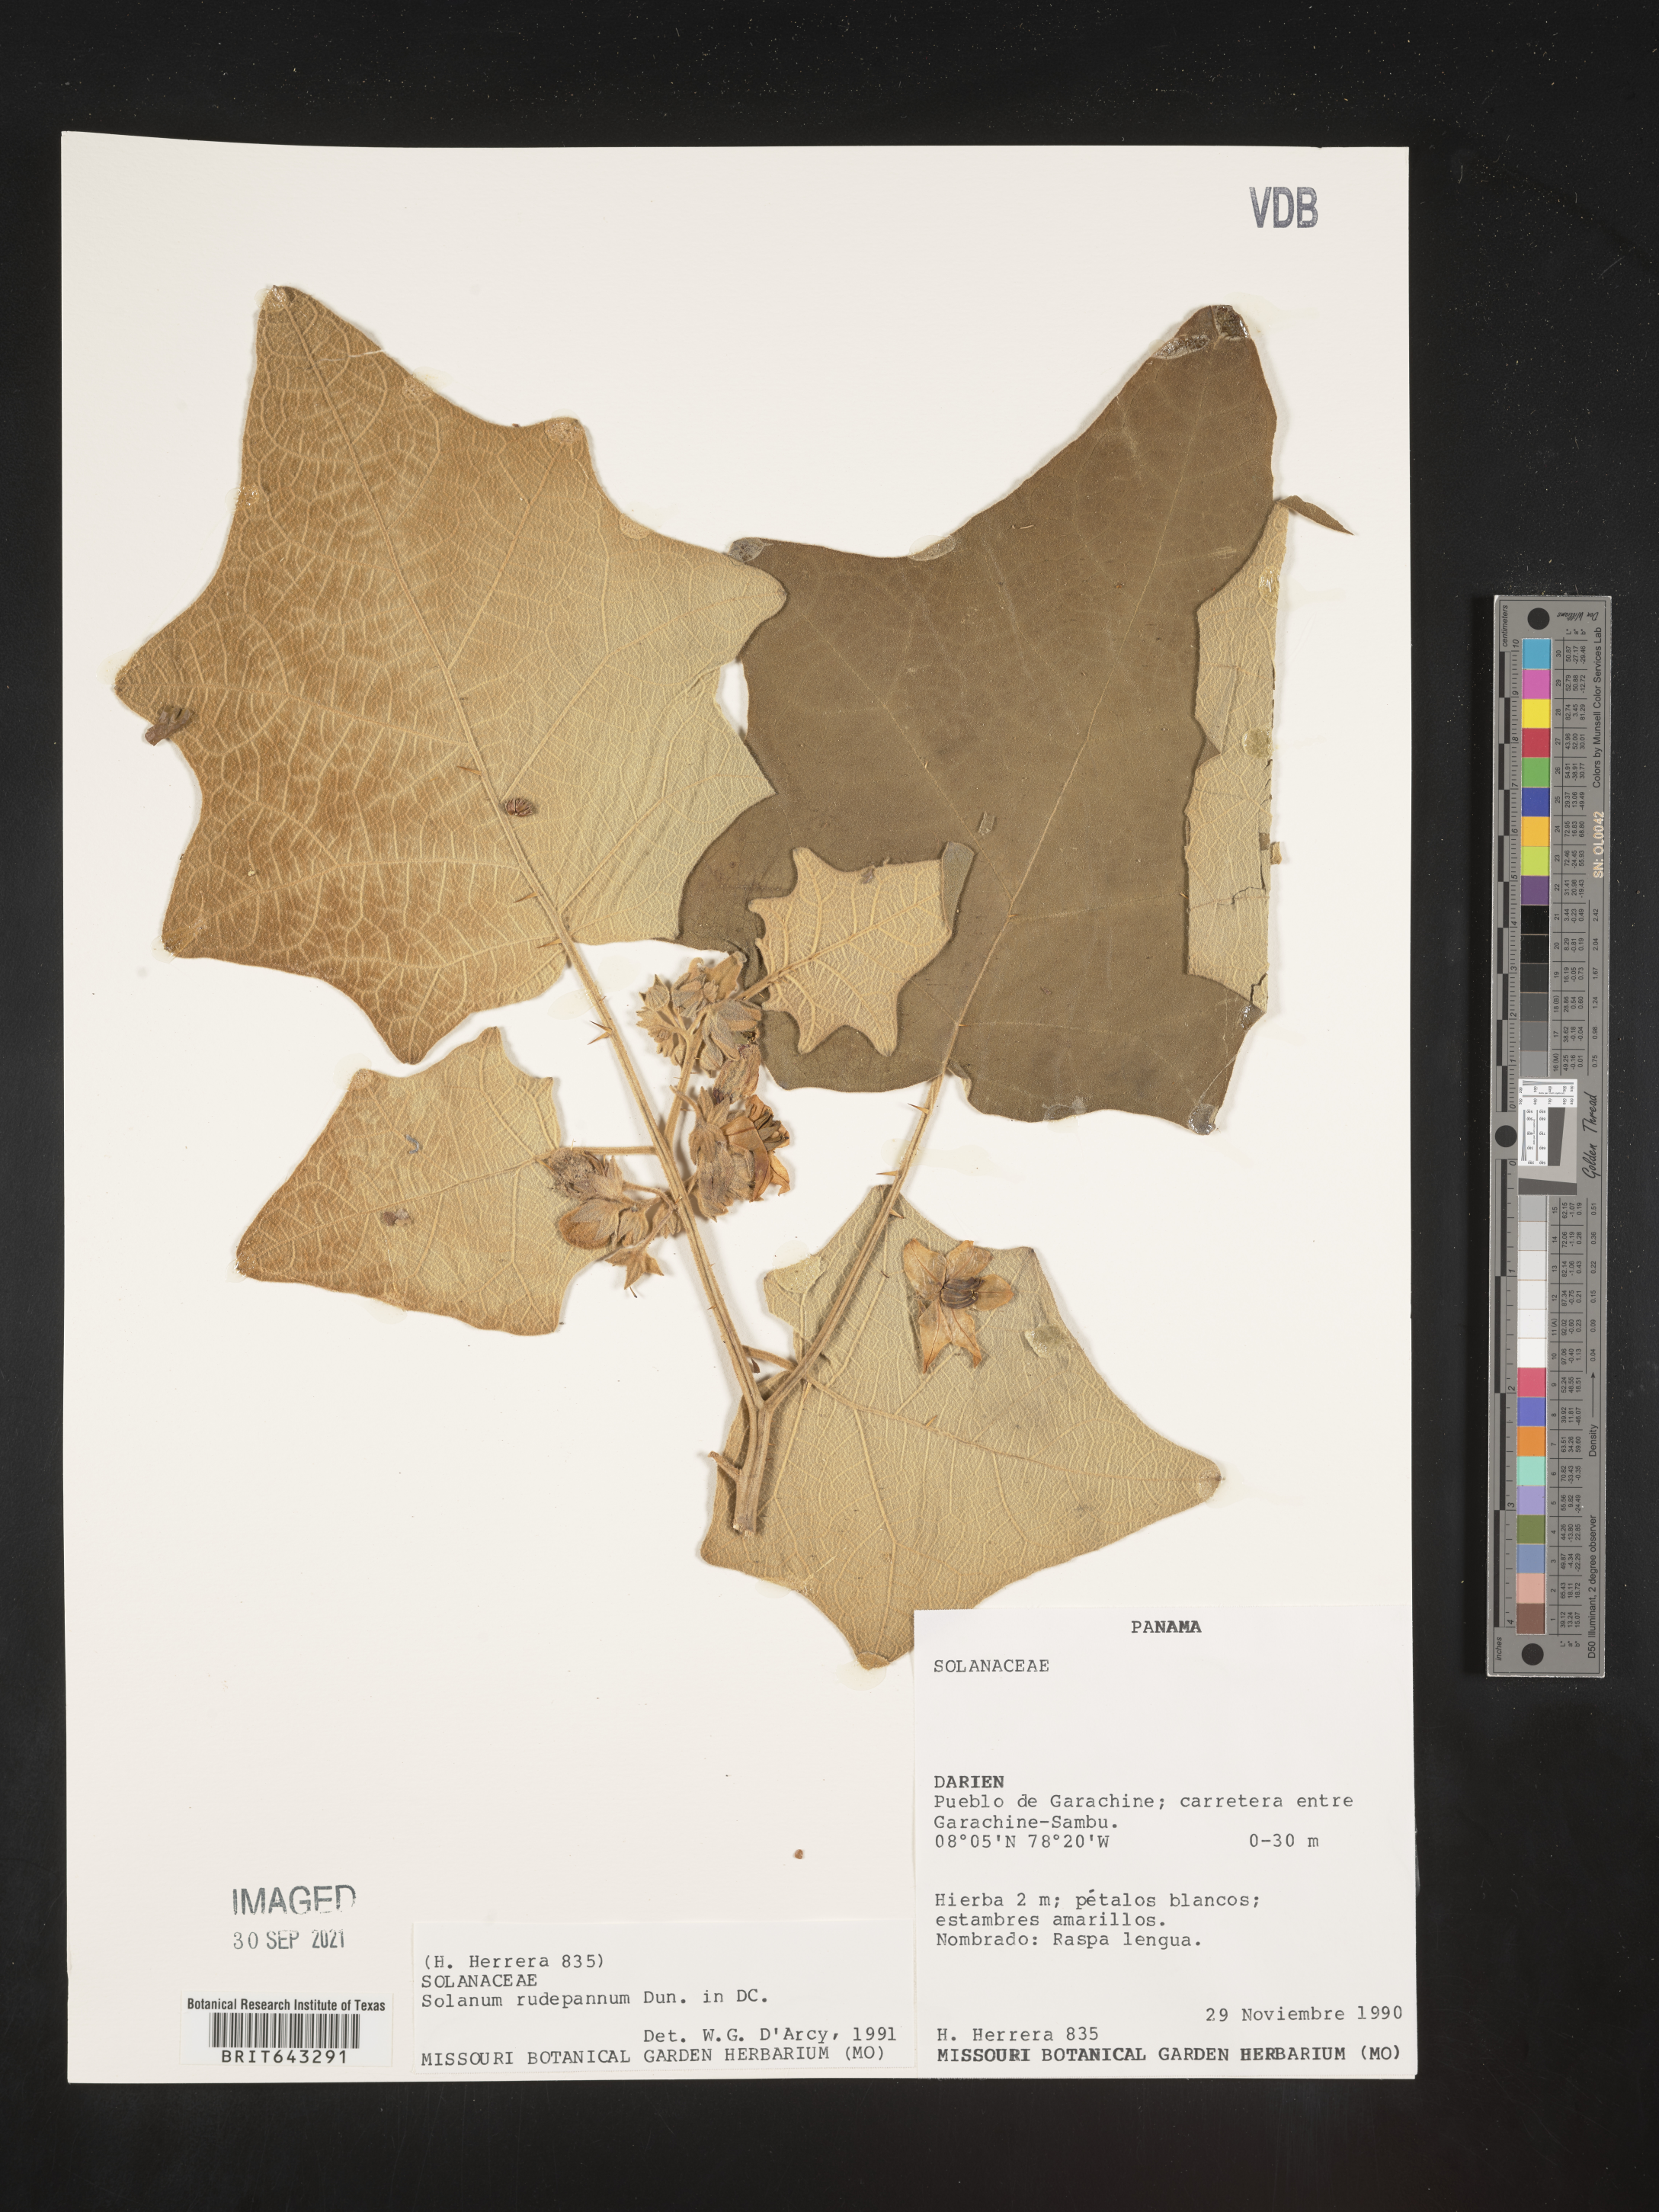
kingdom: Plantae
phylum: Tracheophyta
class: Magnoliopsida
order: Solanales
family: Solanaceae
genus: Solanum
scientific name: Solanum
